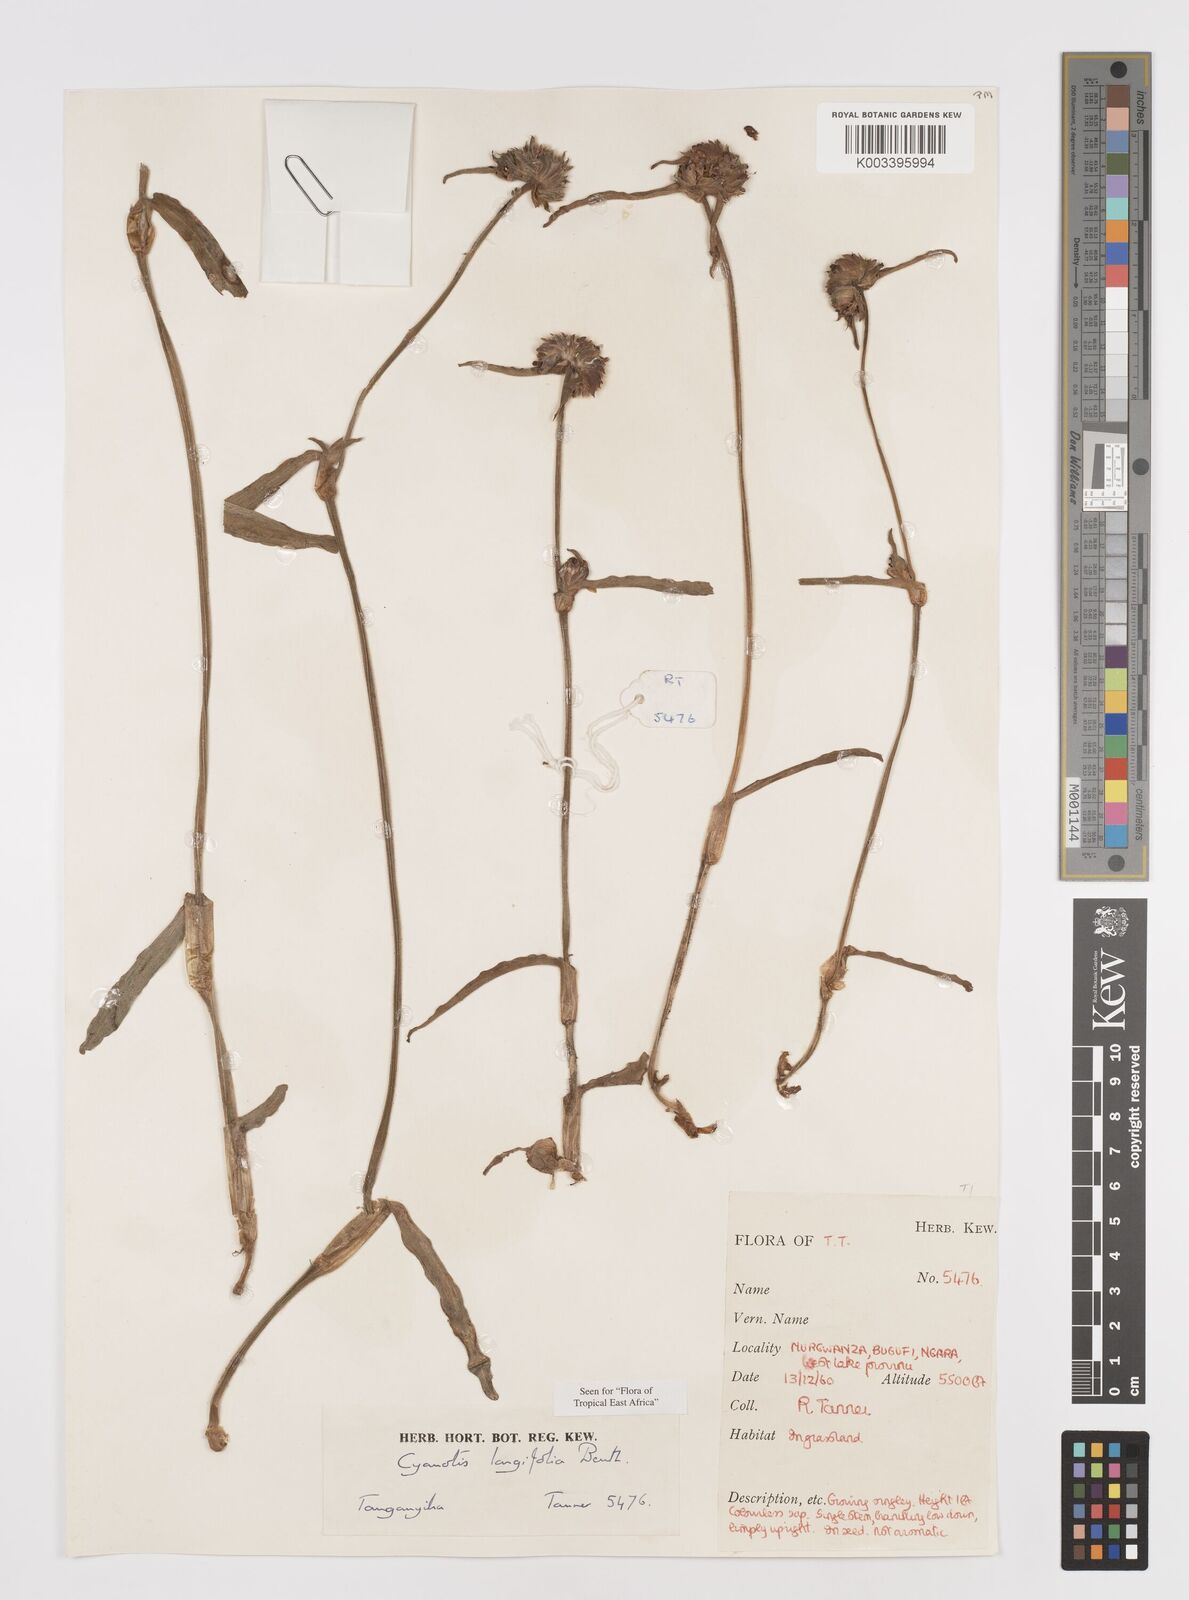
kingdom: Plantae
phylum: Tracheophyta
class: Liliopsida
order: Commelinales
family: Commelinaceae
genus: Cyanotis
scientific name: Cyanotis longifolia
